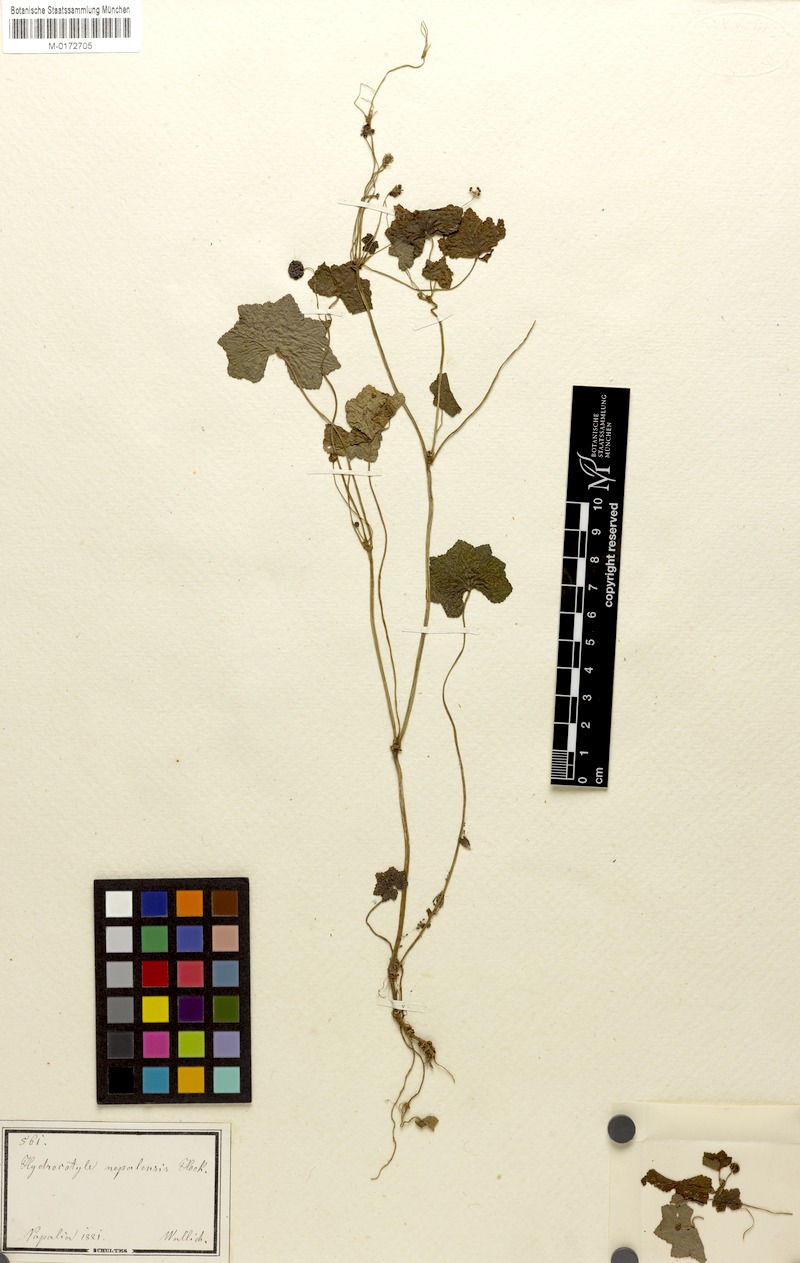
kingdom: Plantae
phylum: Tracheophyta
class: Magnoliopsida
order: Apiales
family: Araliaceae
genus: Hydrocotyle
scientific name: Hydrocotyle nepalensis
